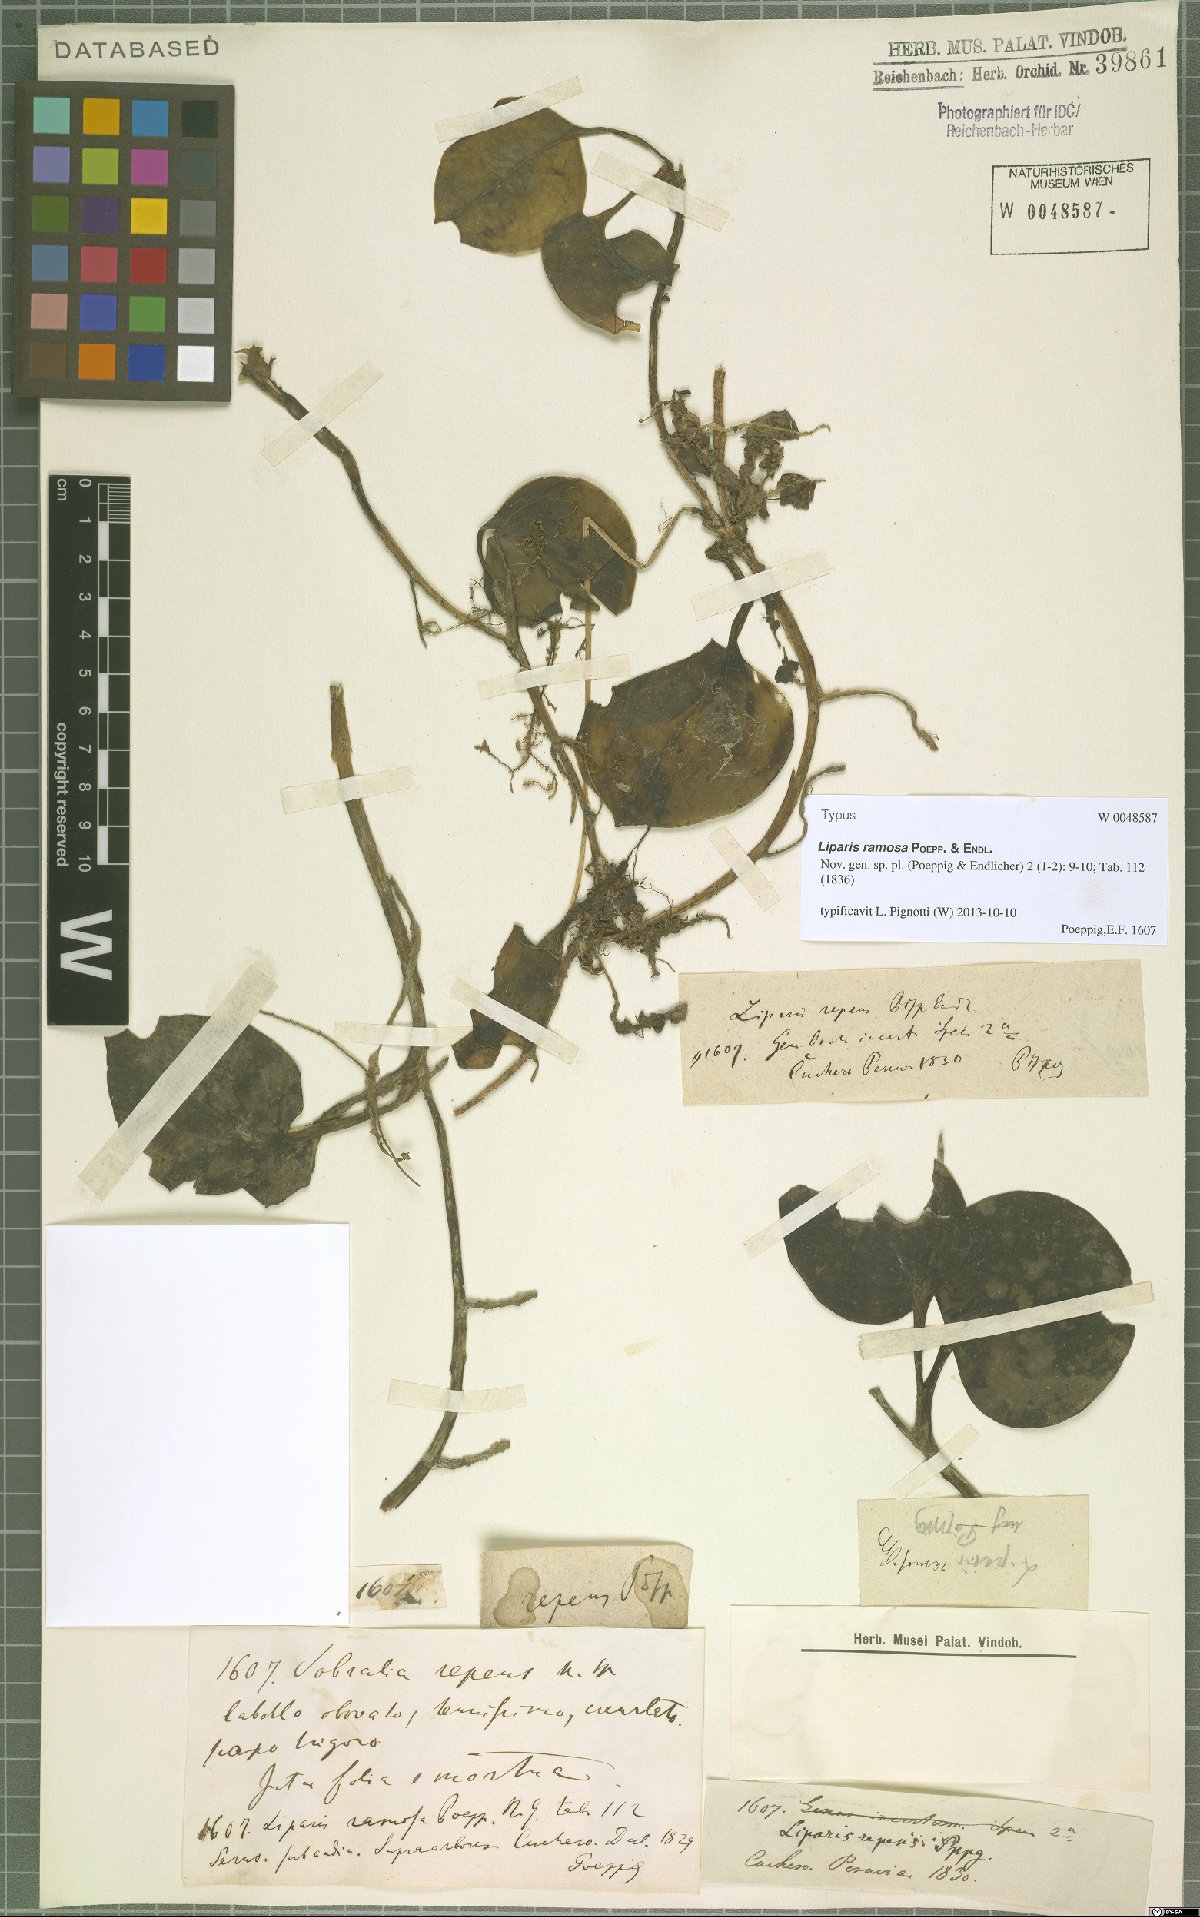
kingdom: Plantae
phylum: Tracheophyta
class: Liliopsida
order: Asparagales
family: Orchidaceae
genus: Liparis
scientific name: Liparis ramosa
